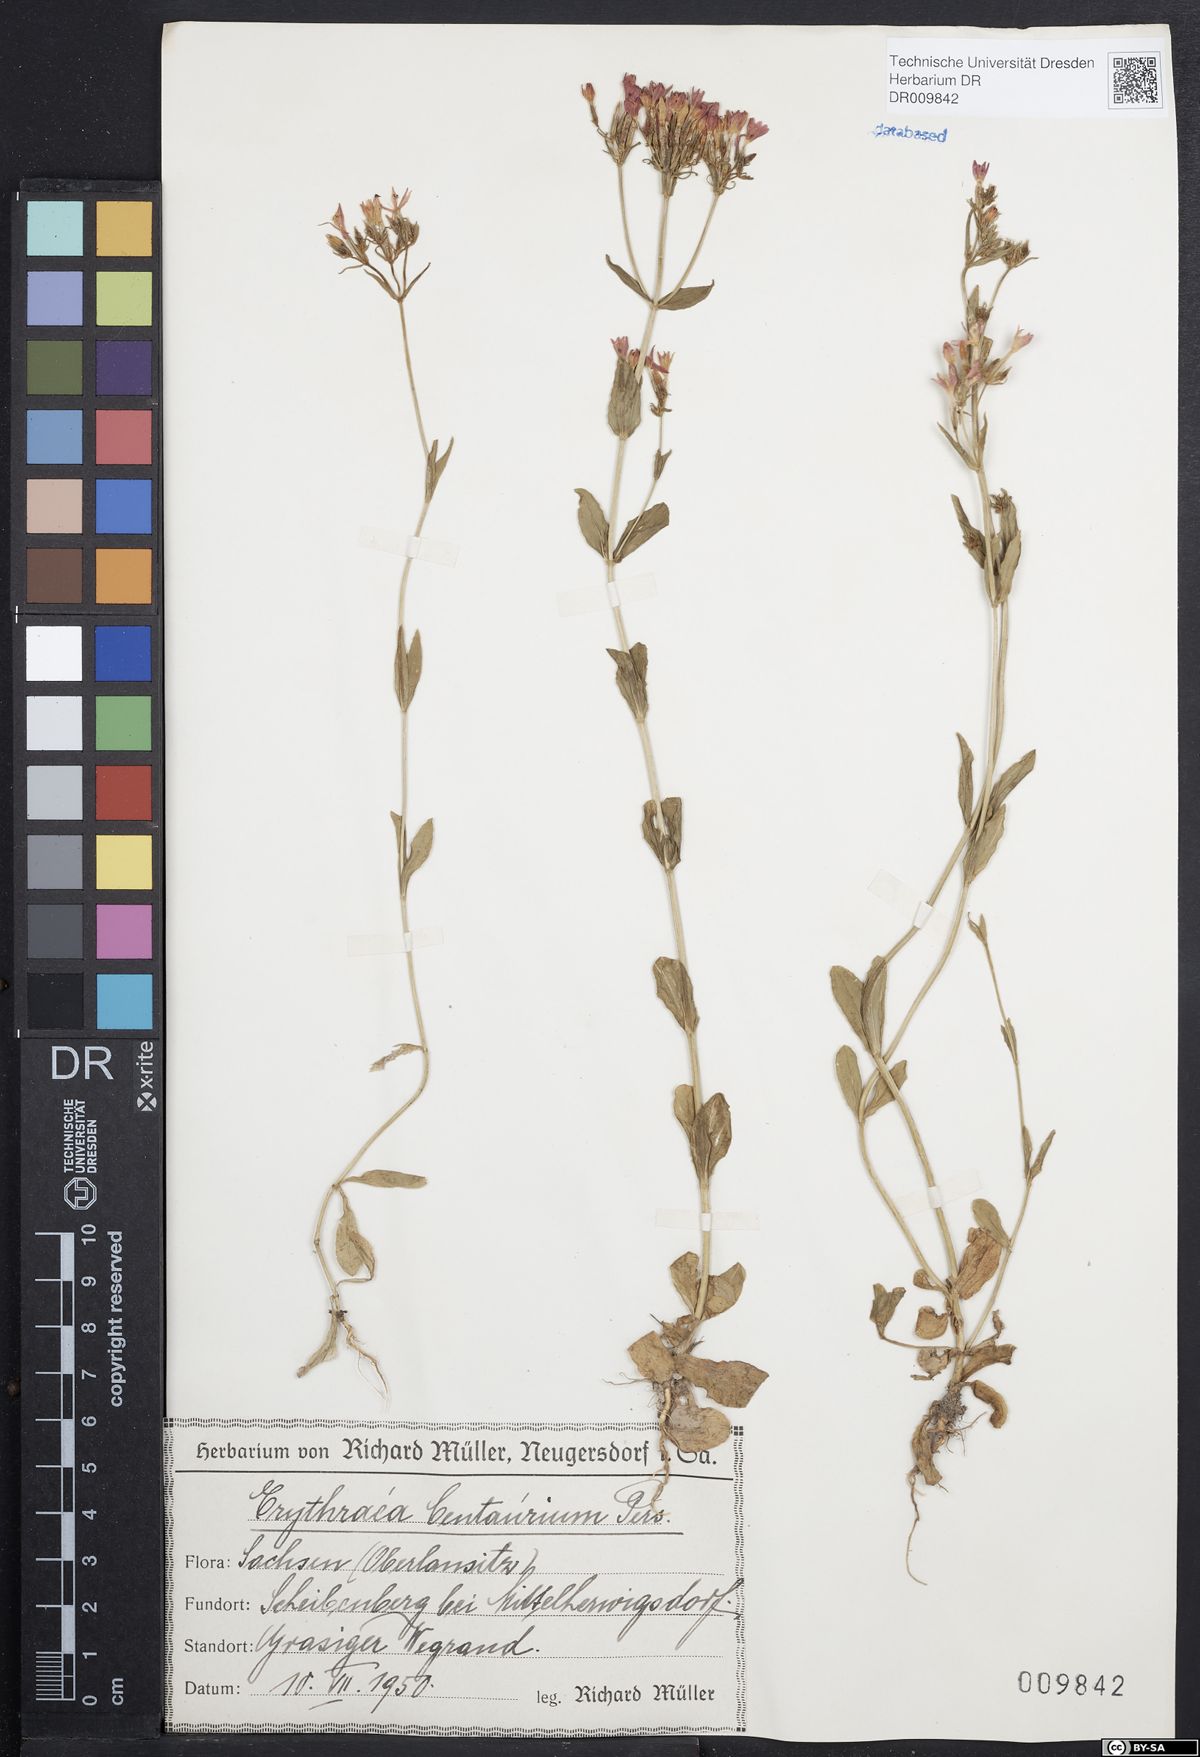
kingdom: Plantae
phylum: Tracheophyta
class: Magnoliopsida
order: Gentianales
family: Gentianaceae
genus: Centaurium
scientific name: Centaurium erythraea
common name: Common centaury
